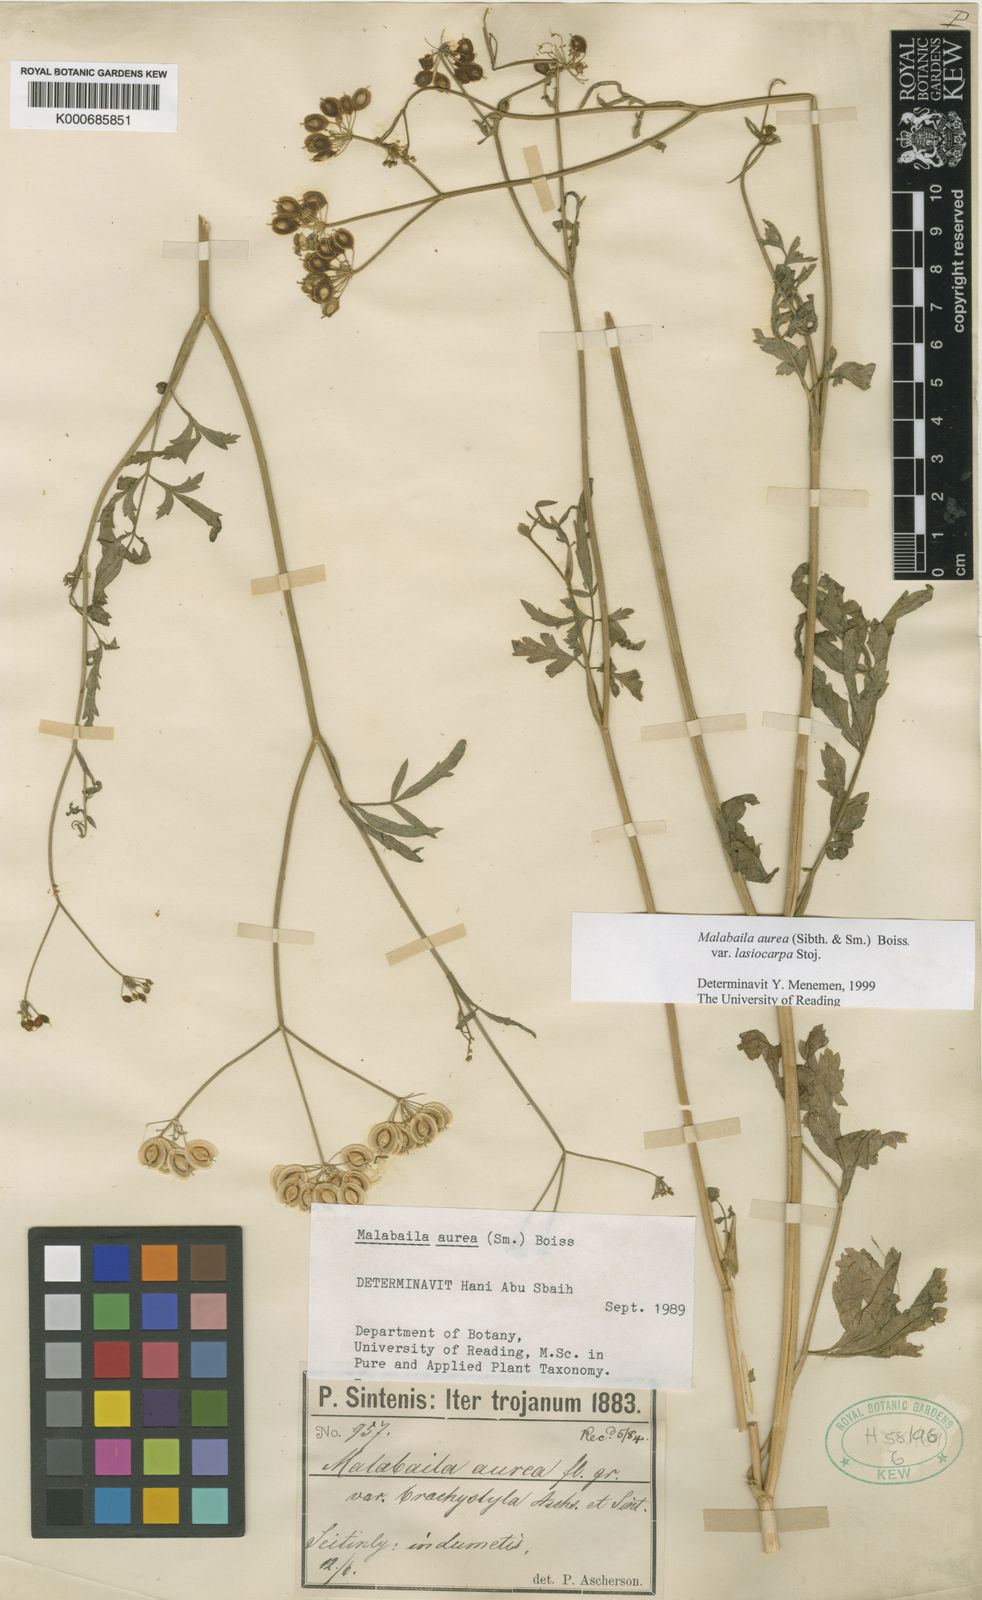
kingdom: Plantae
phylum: Tracheophyta
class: Magnoliopsida
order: Apiales
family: Apiaceae
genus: Pastinaca
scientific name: Pastinaca
